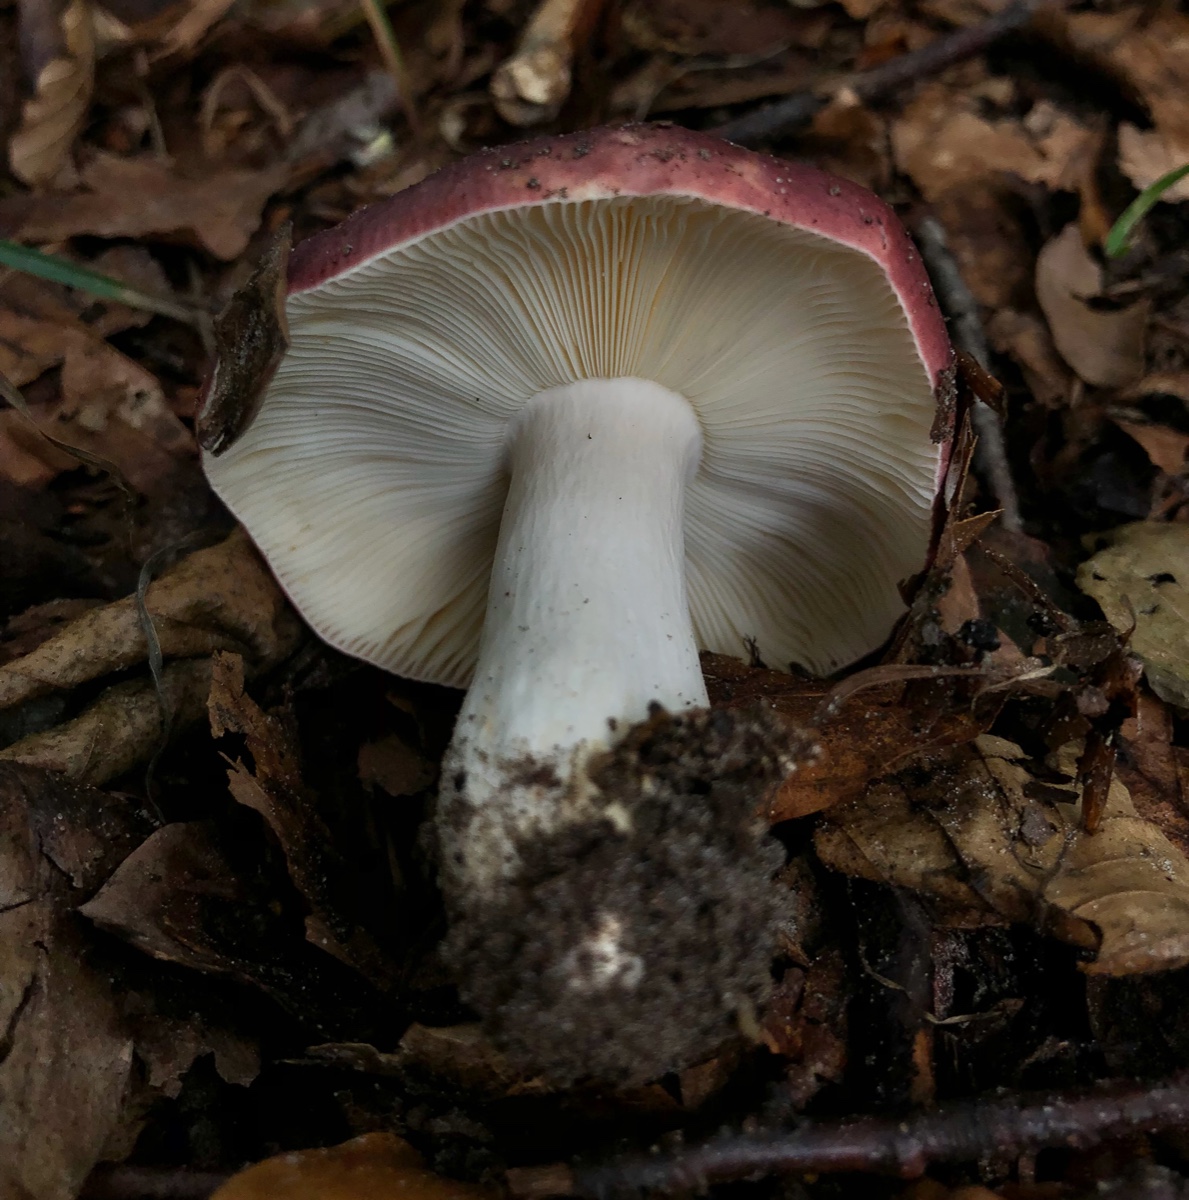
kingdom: Fungi
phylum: Basidiomycota
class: Agaricomycetes
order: Russulales
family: Russulaceae
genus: Russula
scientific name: Russula atropurpurea
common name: purpurbroget skørhat
